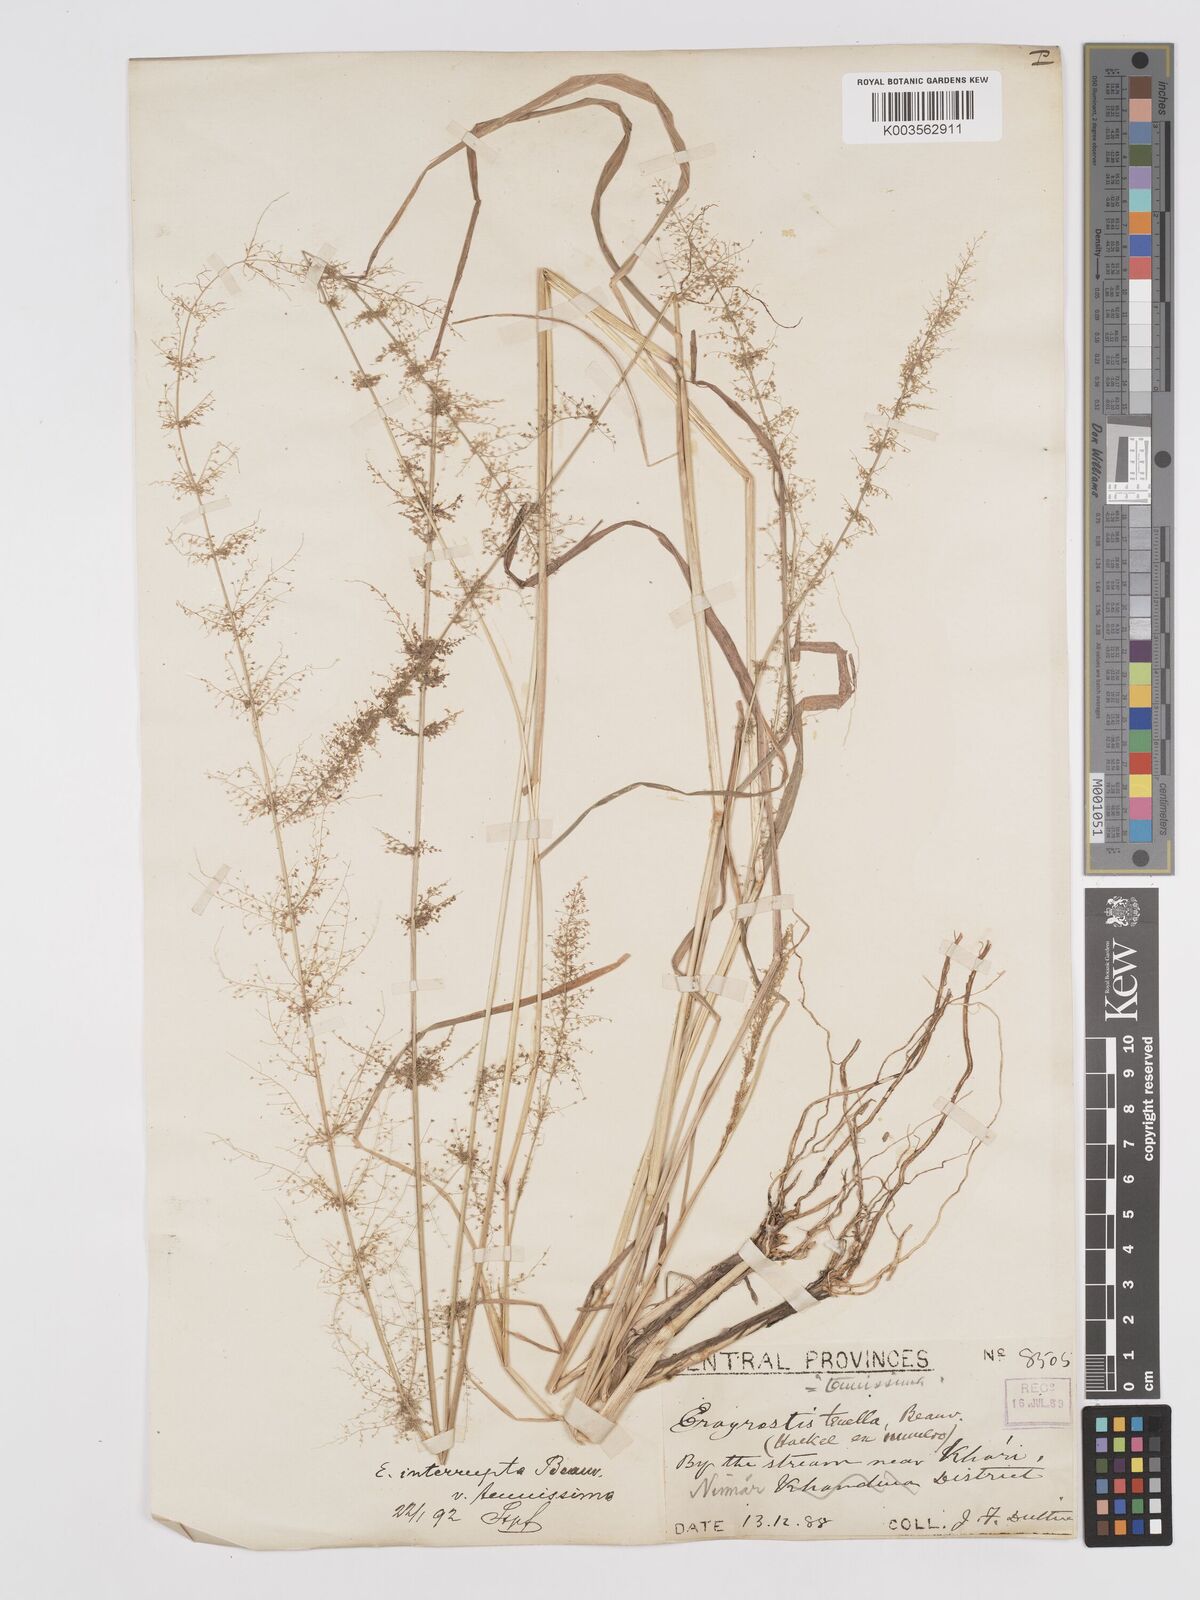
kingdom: Plantae
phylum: Tracheophyta
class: Liliopsida
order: Poales
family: Poaceae
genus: Eragrostis
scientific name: Eragrostis japonica
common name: Pond lovegrass
